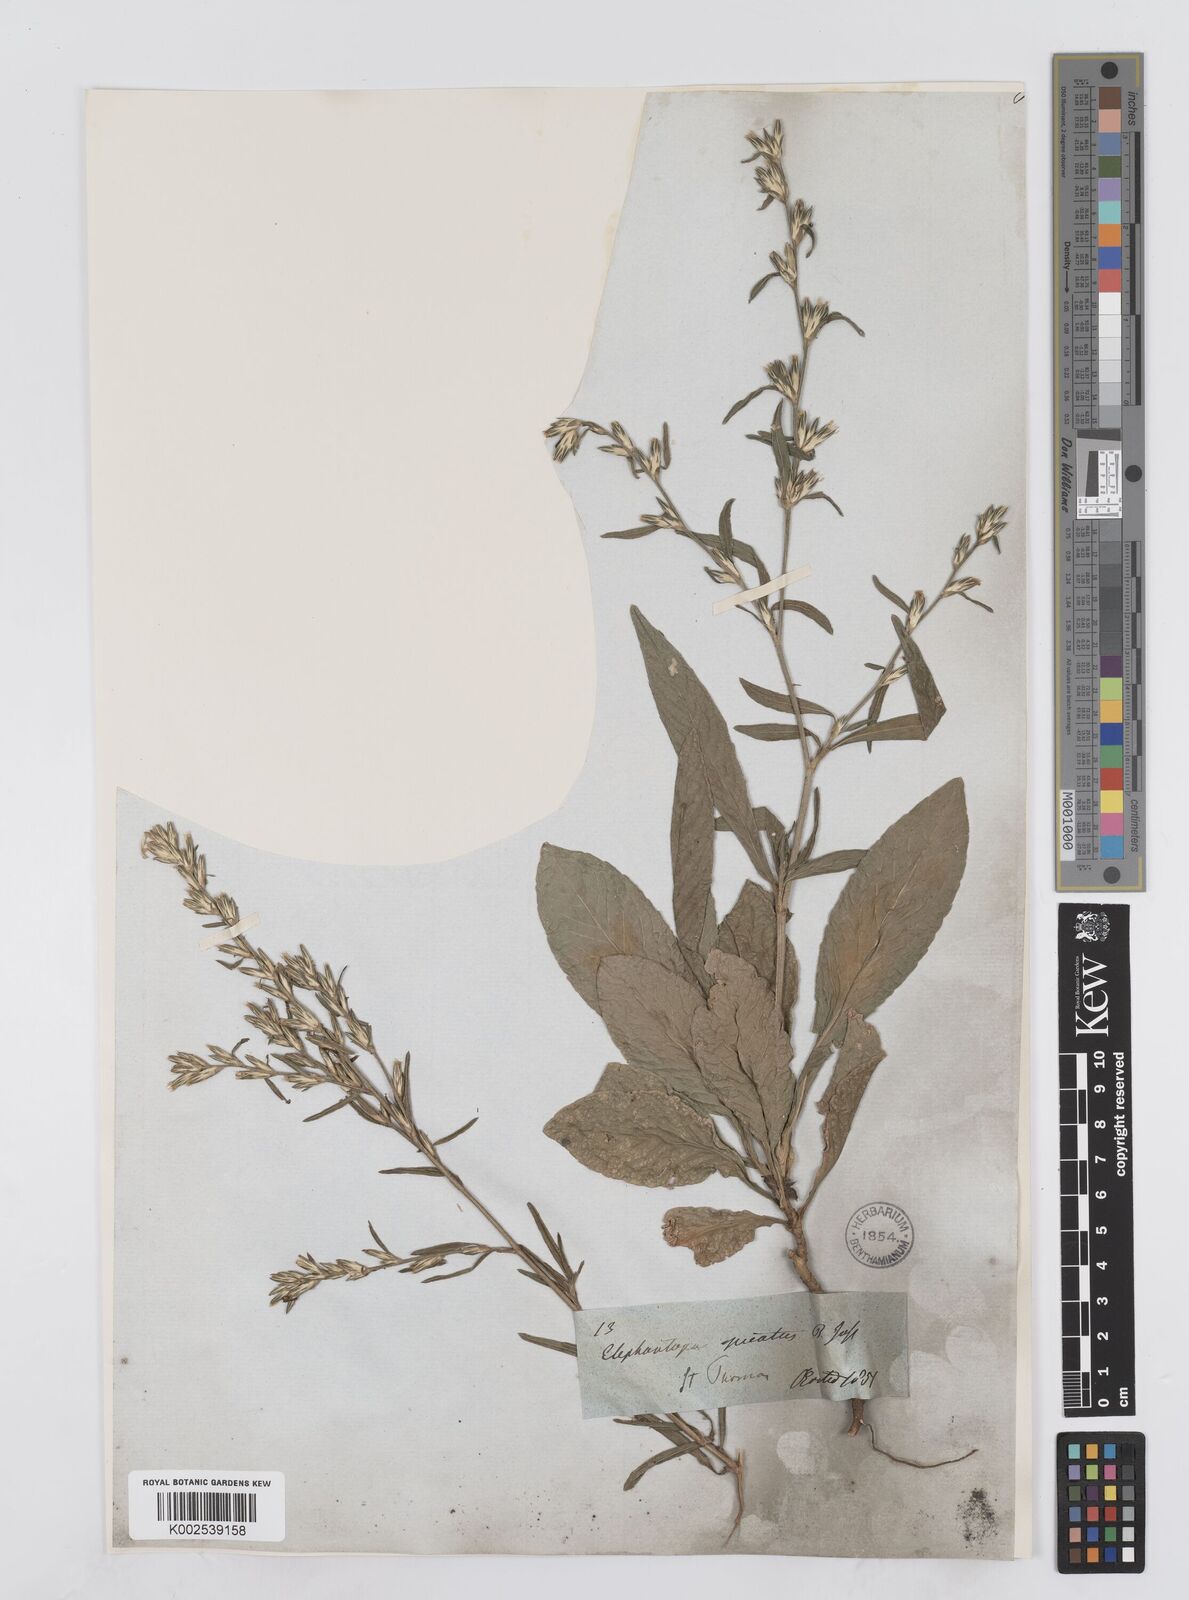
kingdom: Plantae
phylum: Tracheophyta
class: Magnoliopsida
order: Asterales
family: Asteraceae
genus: Pseudelephantopus
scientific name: Pseudelephantopus spicatus
